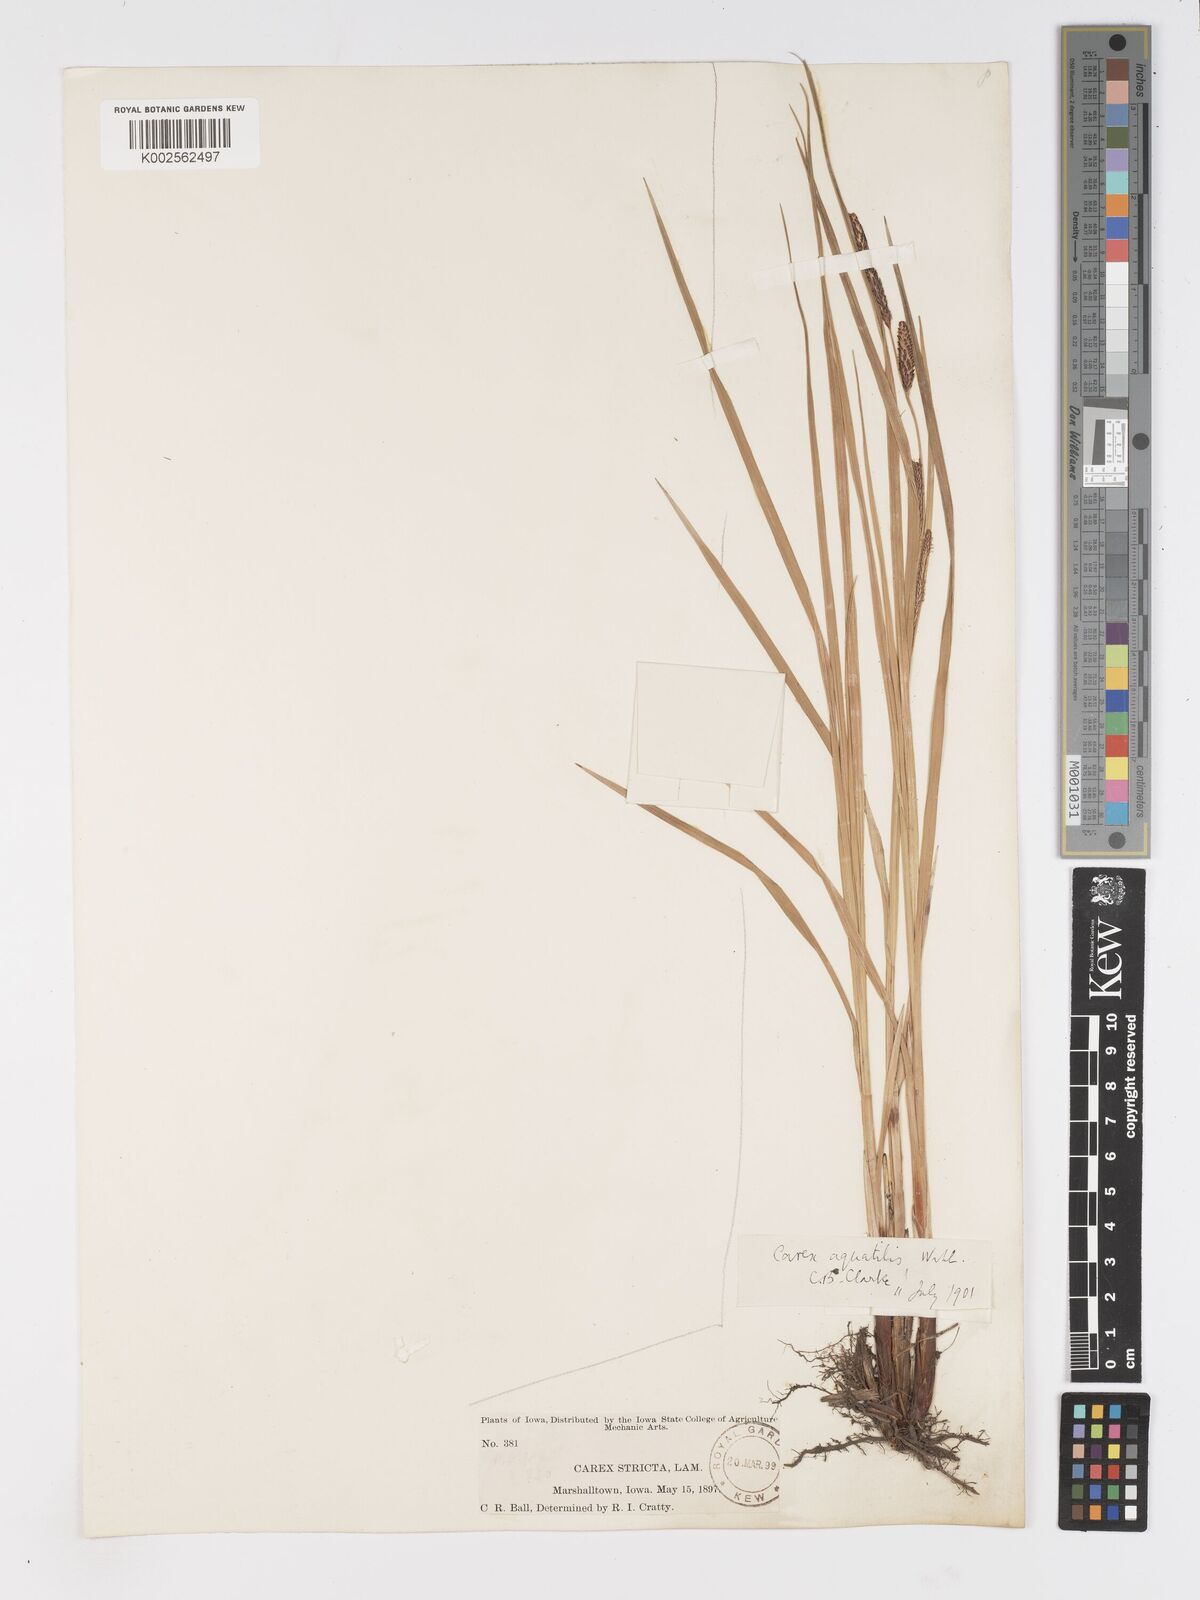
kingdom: Plantae
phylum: Tracheophyta
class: Liliopsida
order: Poales
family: Cyperaceae
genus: Carex
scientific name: Carex
